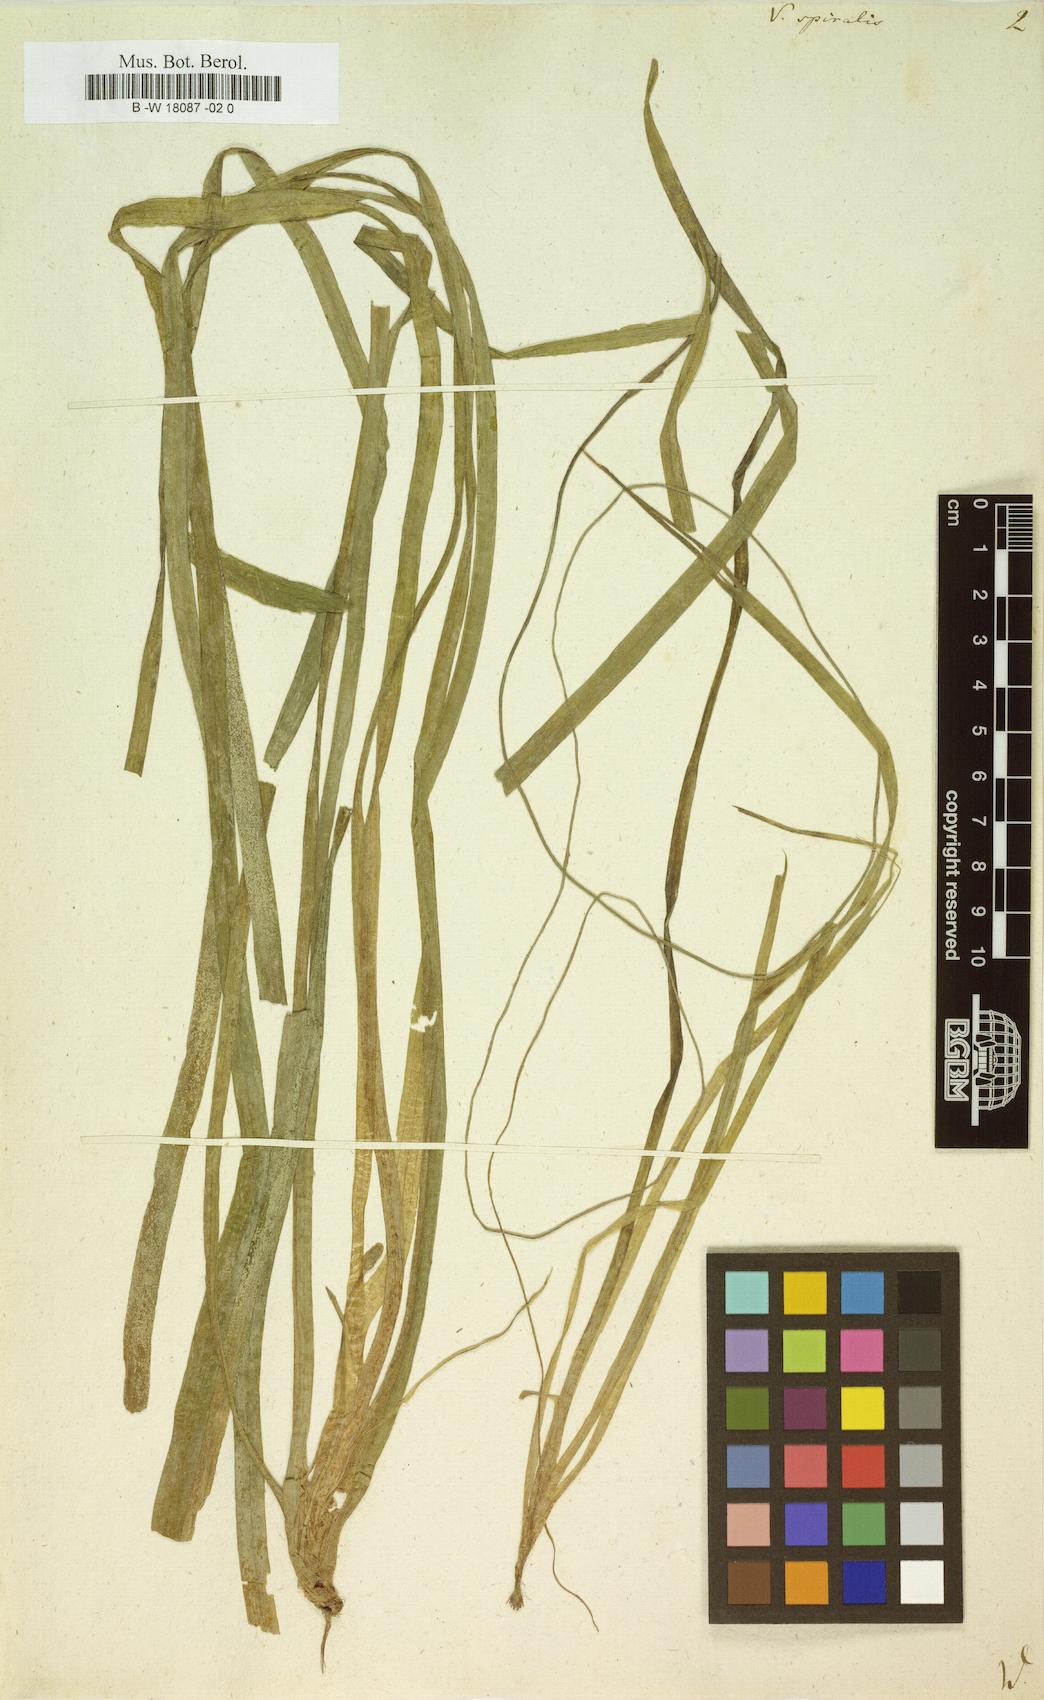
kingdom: Plantae
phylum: Tracheophyta
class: Liliopsida
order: Alismatales
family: Hydrocharitaceae
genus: Vallisneria
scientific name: Vallisneria spiralis
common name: Tapegrass
